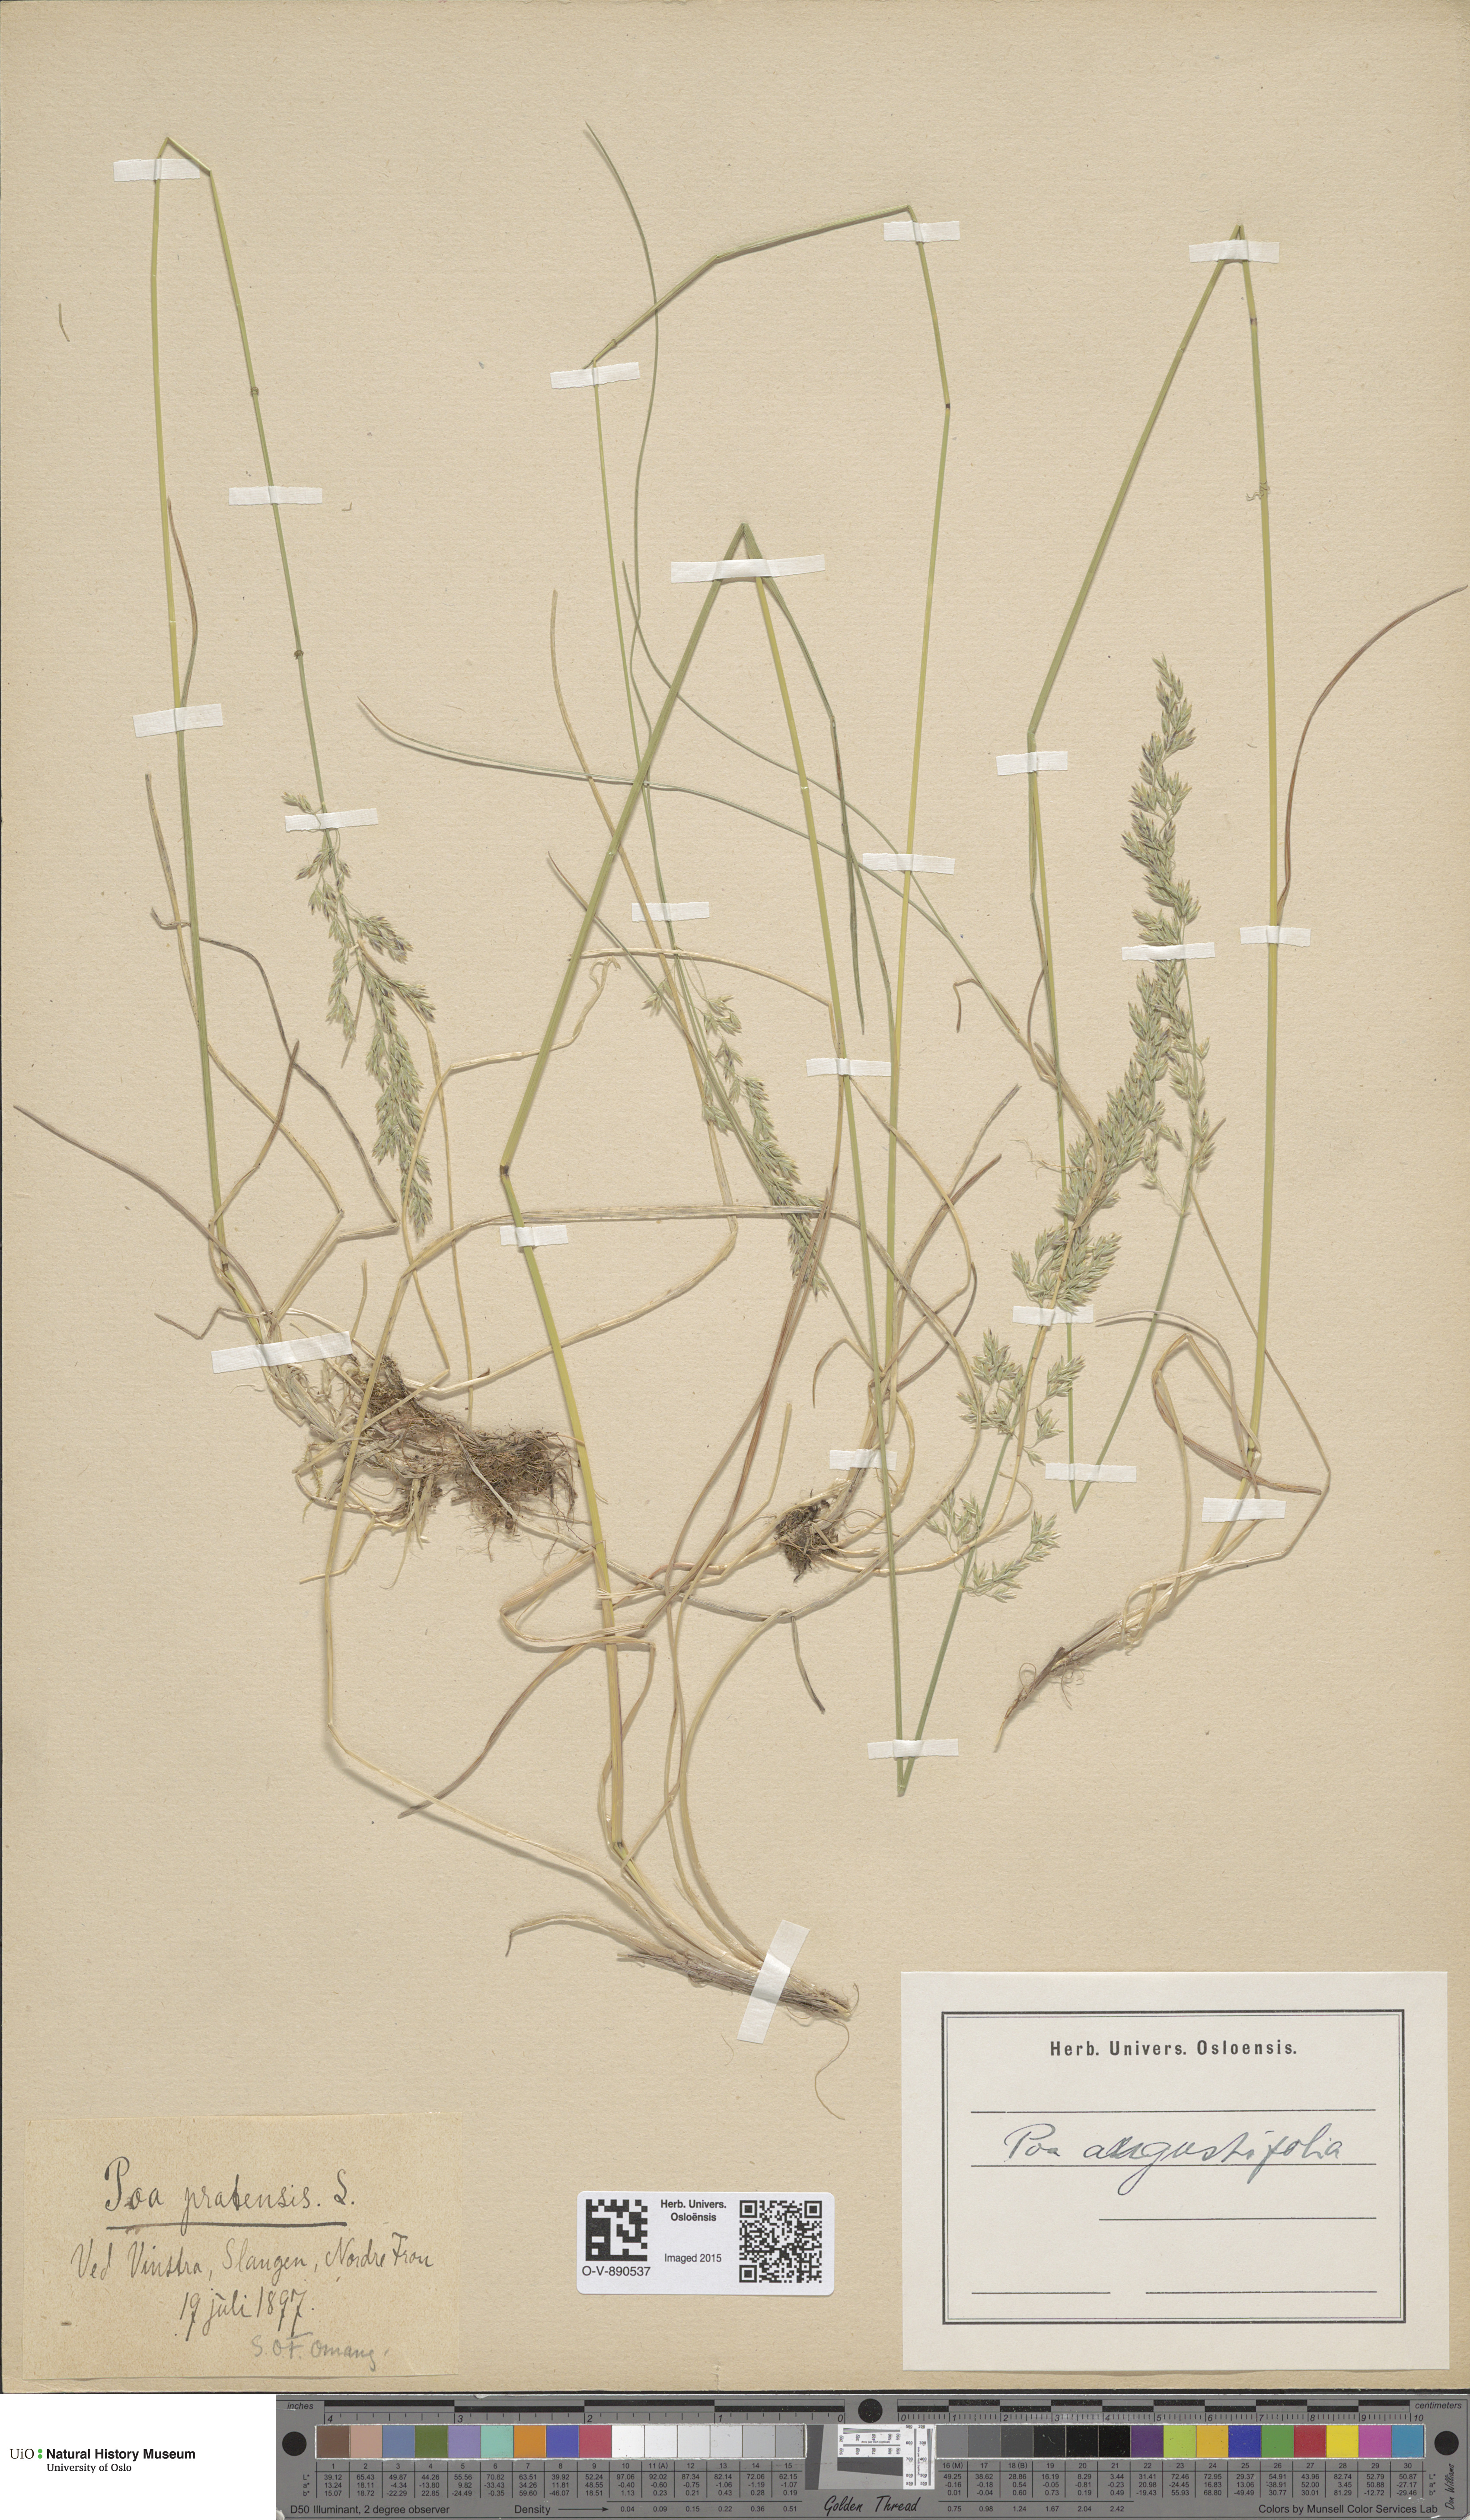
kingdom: Plantae
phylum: Tracheophyta
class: Liliopsida
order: Poales
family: Poaceae
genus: Poa
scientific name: Poa angustifolia
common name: Narrow-leaved meadow-grass
